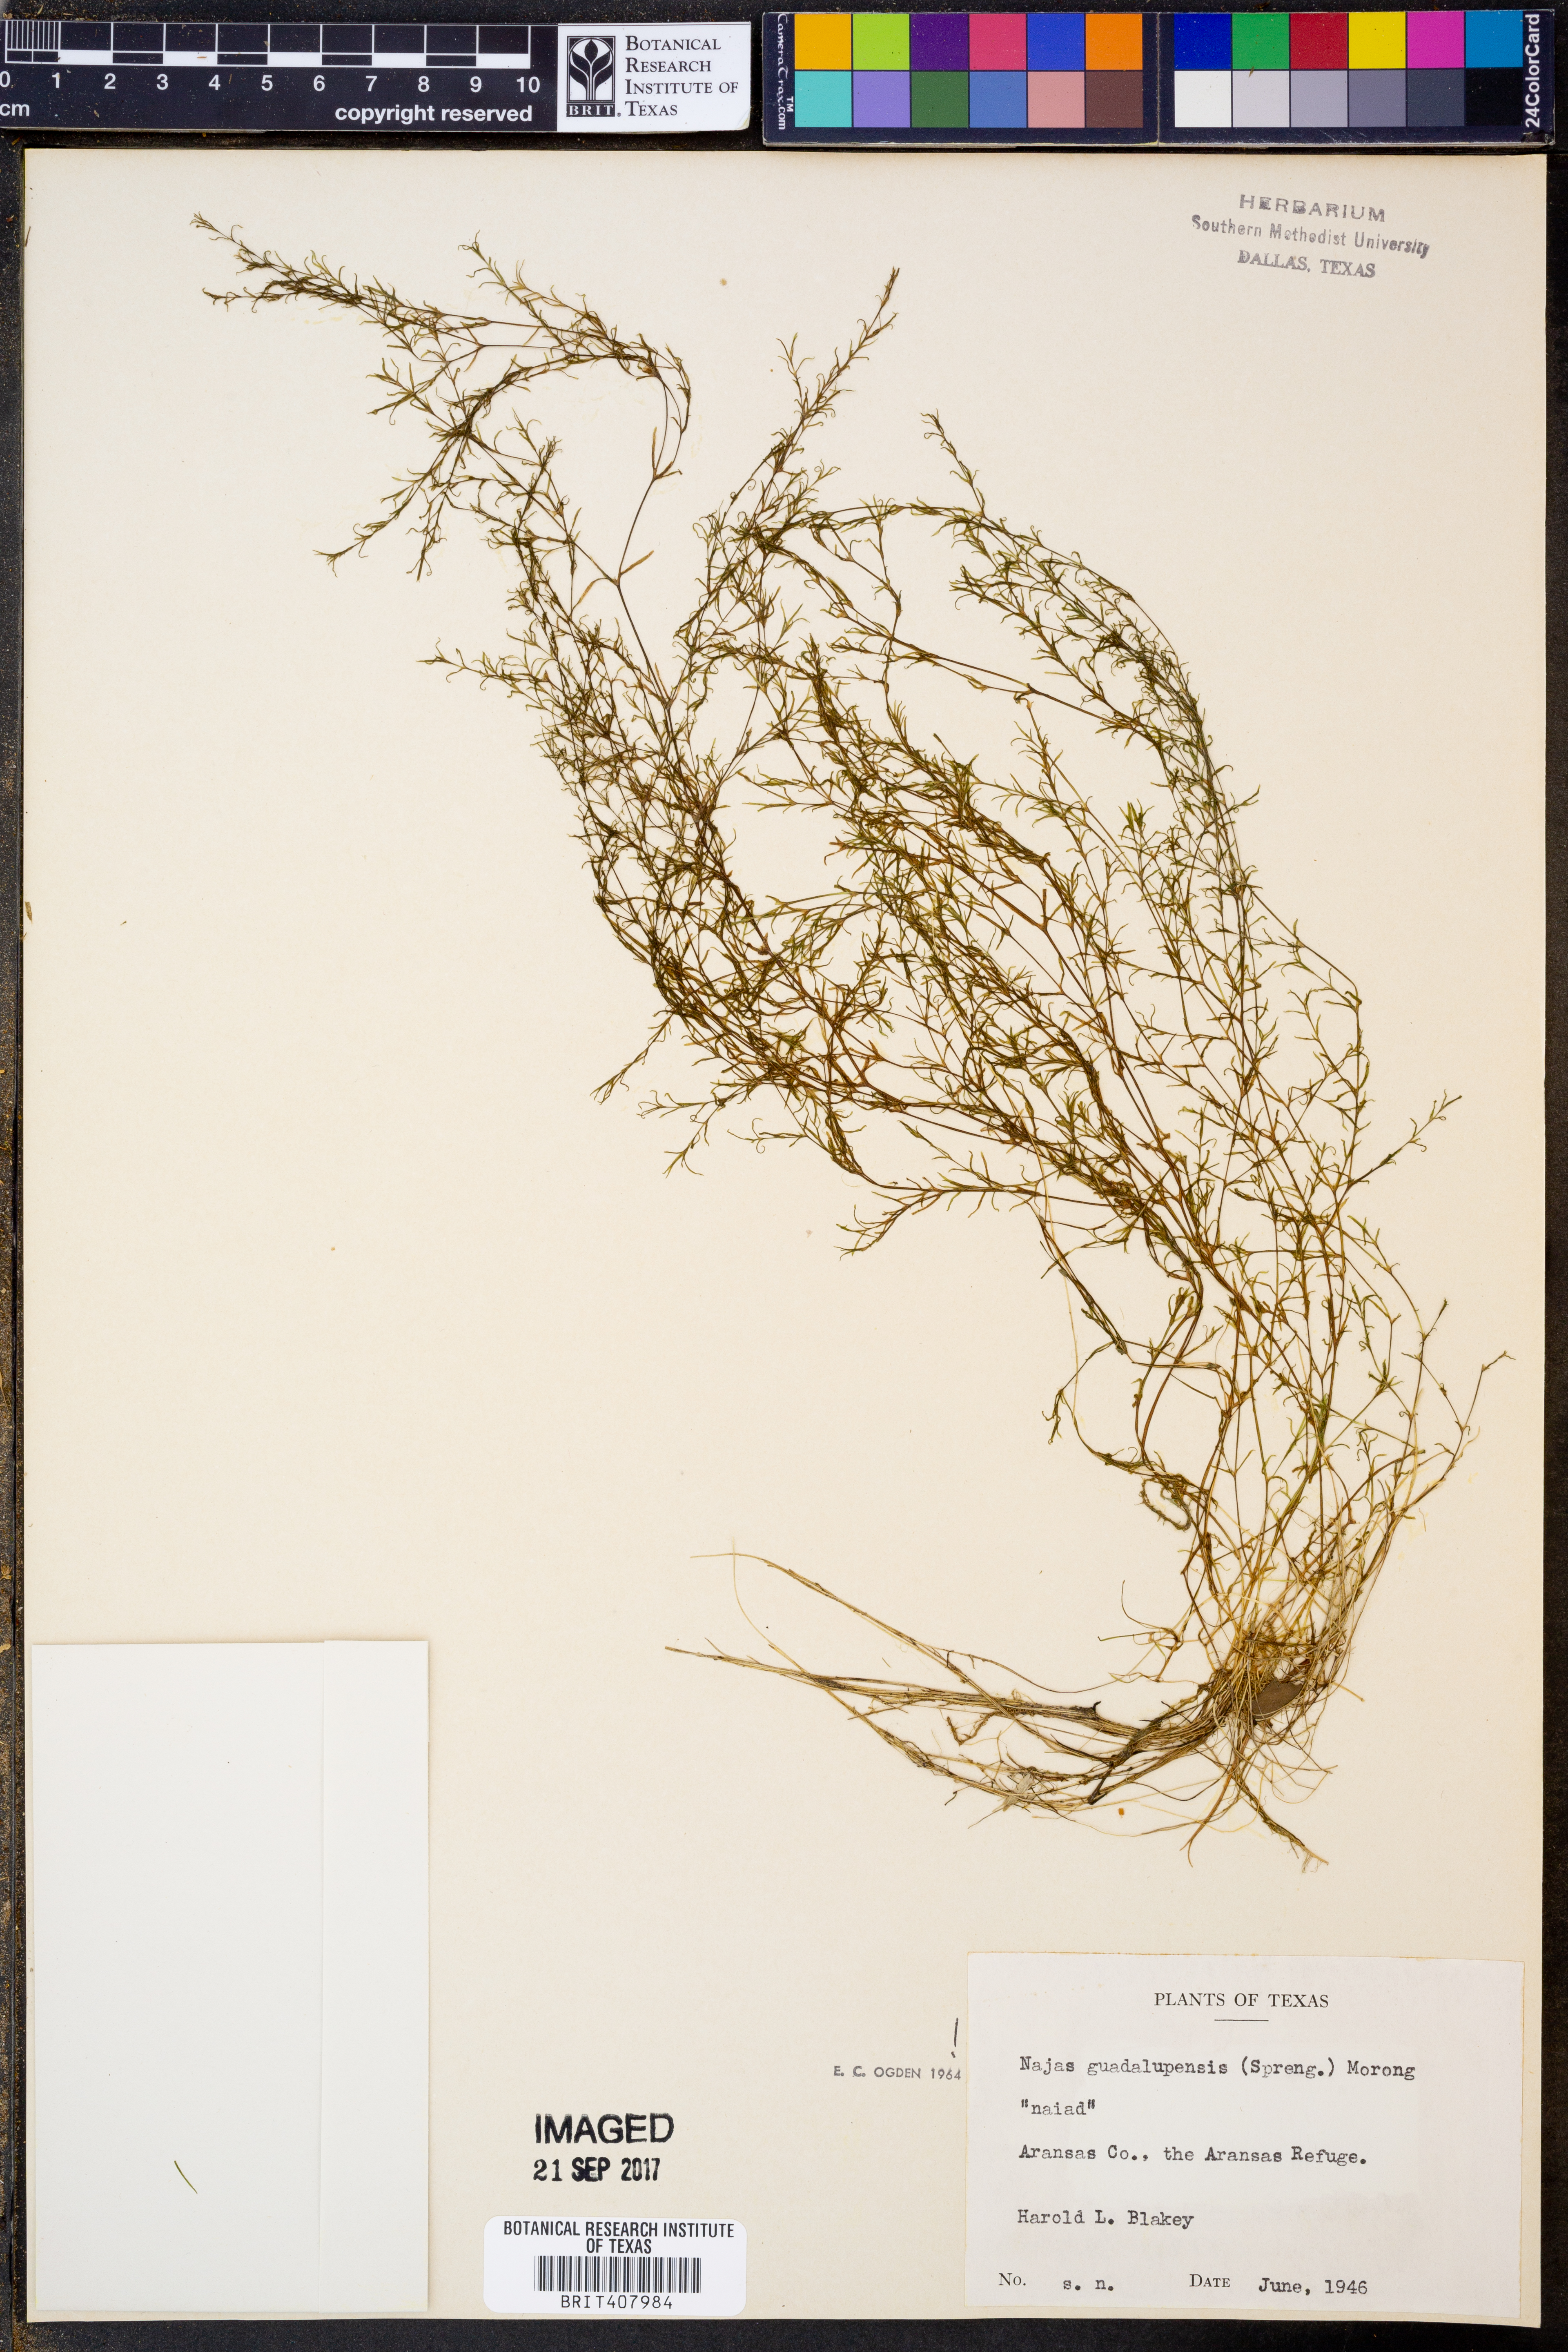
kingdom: Plantae
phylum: Tracheophyta
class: Liliopsida
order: Alismatales
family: Hydrocharitaceae
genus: Najas
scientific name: Najas guadalupensis
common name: Southern naiad
